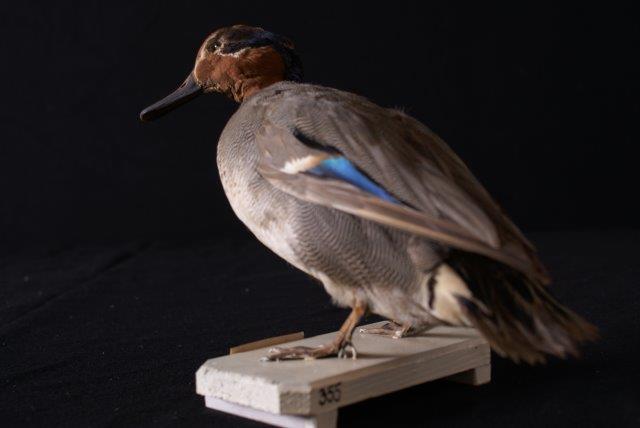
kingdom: Animalia
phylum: Chordata
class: Aves
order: Anseriformes
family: Anatidae
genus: Anas
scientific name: Anas crecca
